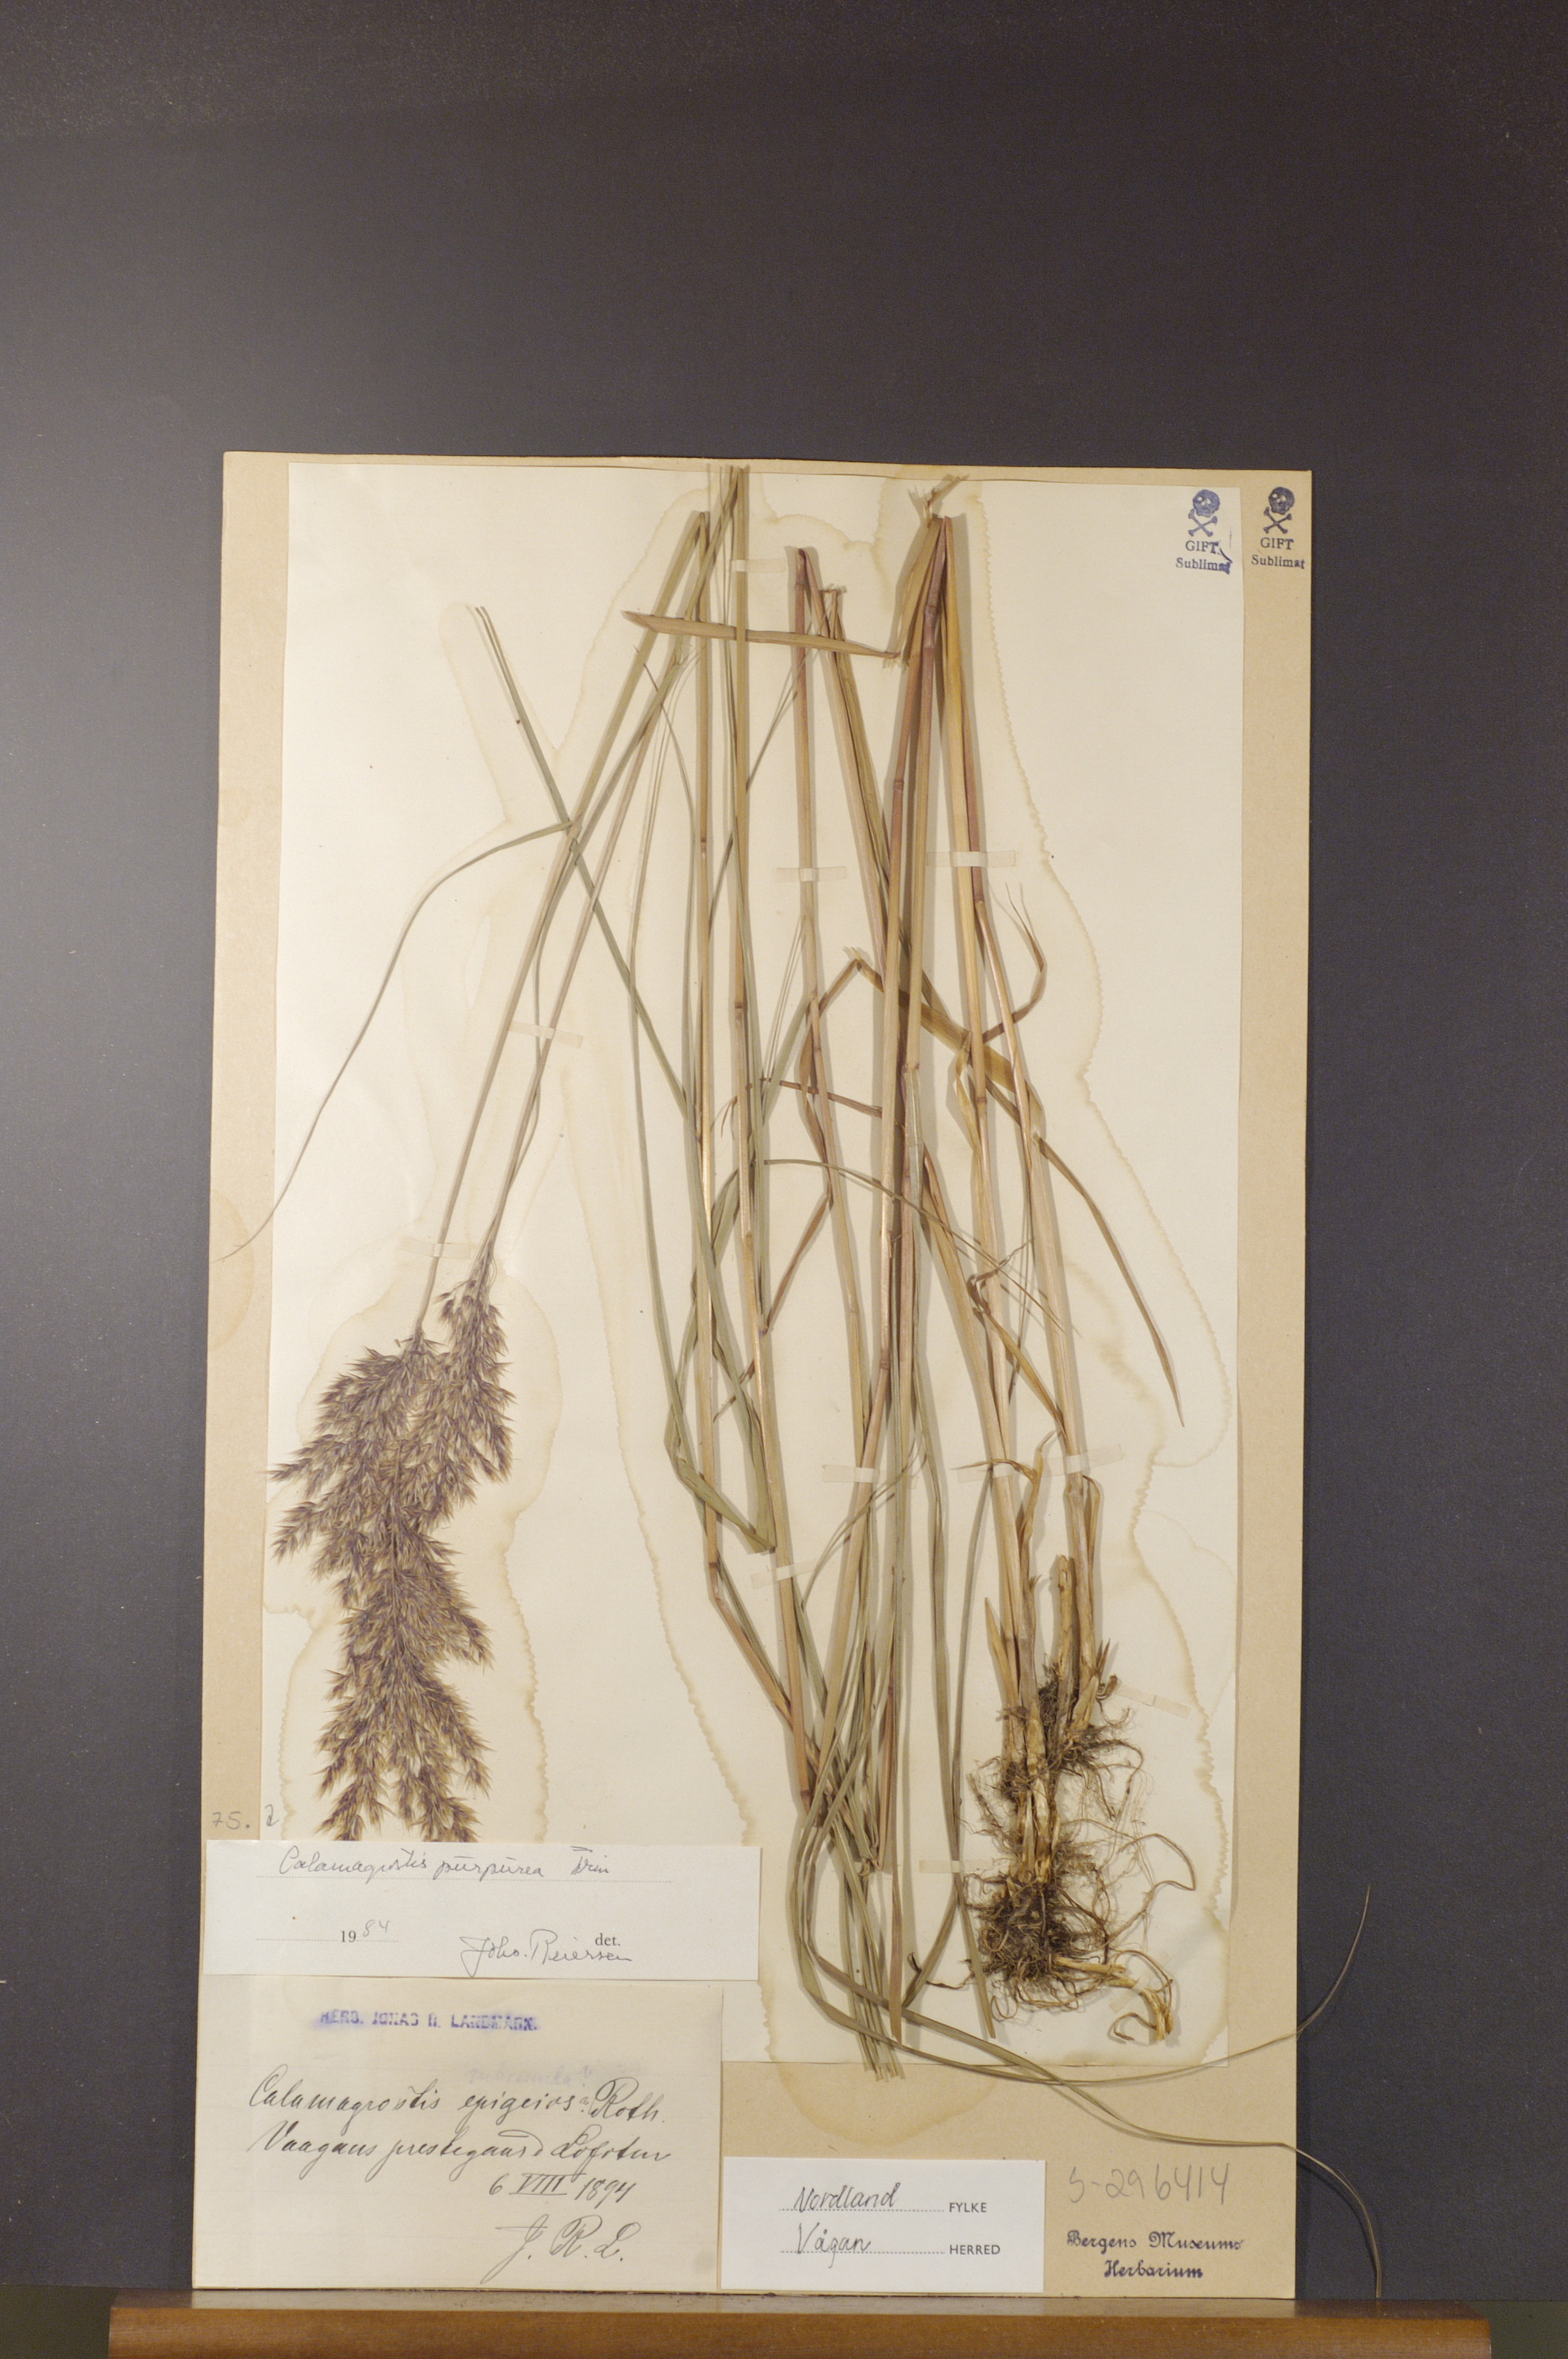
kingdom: Plantae
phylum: Tracheophyta
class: Liliopsida
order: Poales
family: Poaceae
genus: Calamagrostis
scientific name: Calamagrostis purpurea
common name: Scandinavian small-reed
